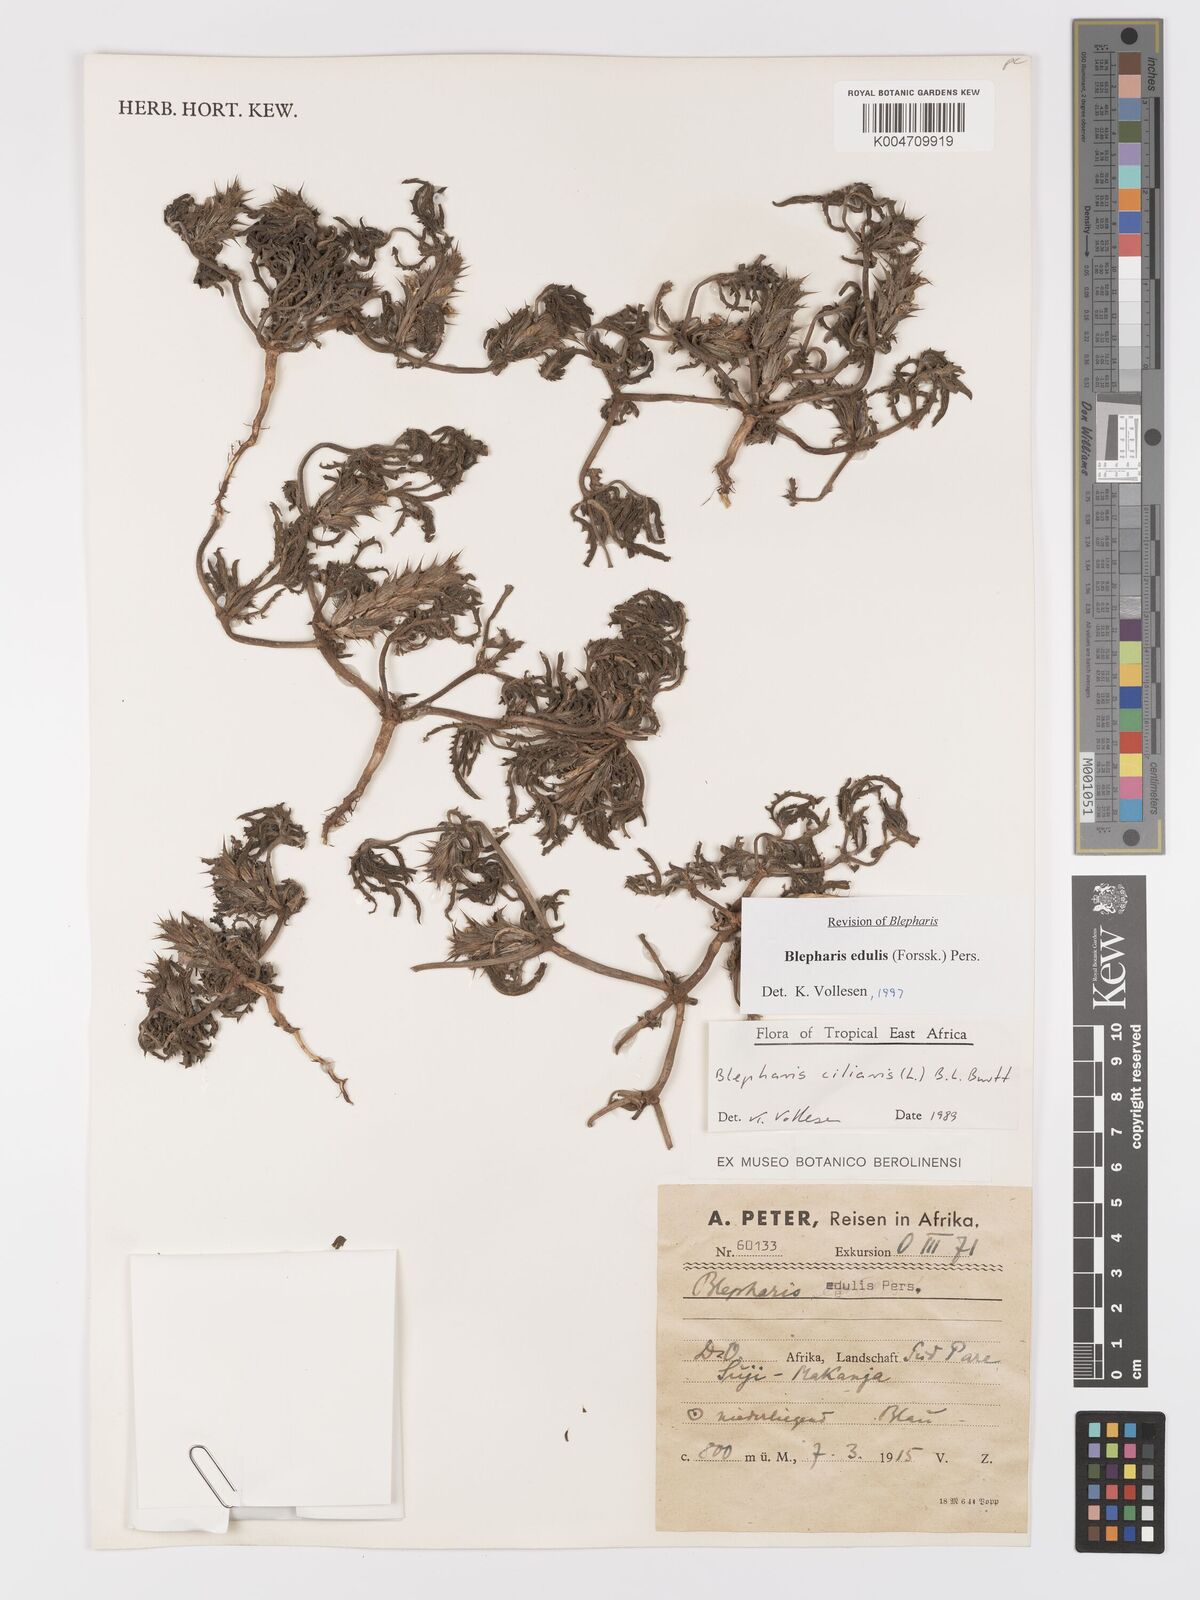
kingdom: Plantae
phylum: Tracheophyta
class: Magnoliopsida
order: Lamiales
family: Acanthaceae
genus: Blepharis
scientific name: Blepharis edulis
